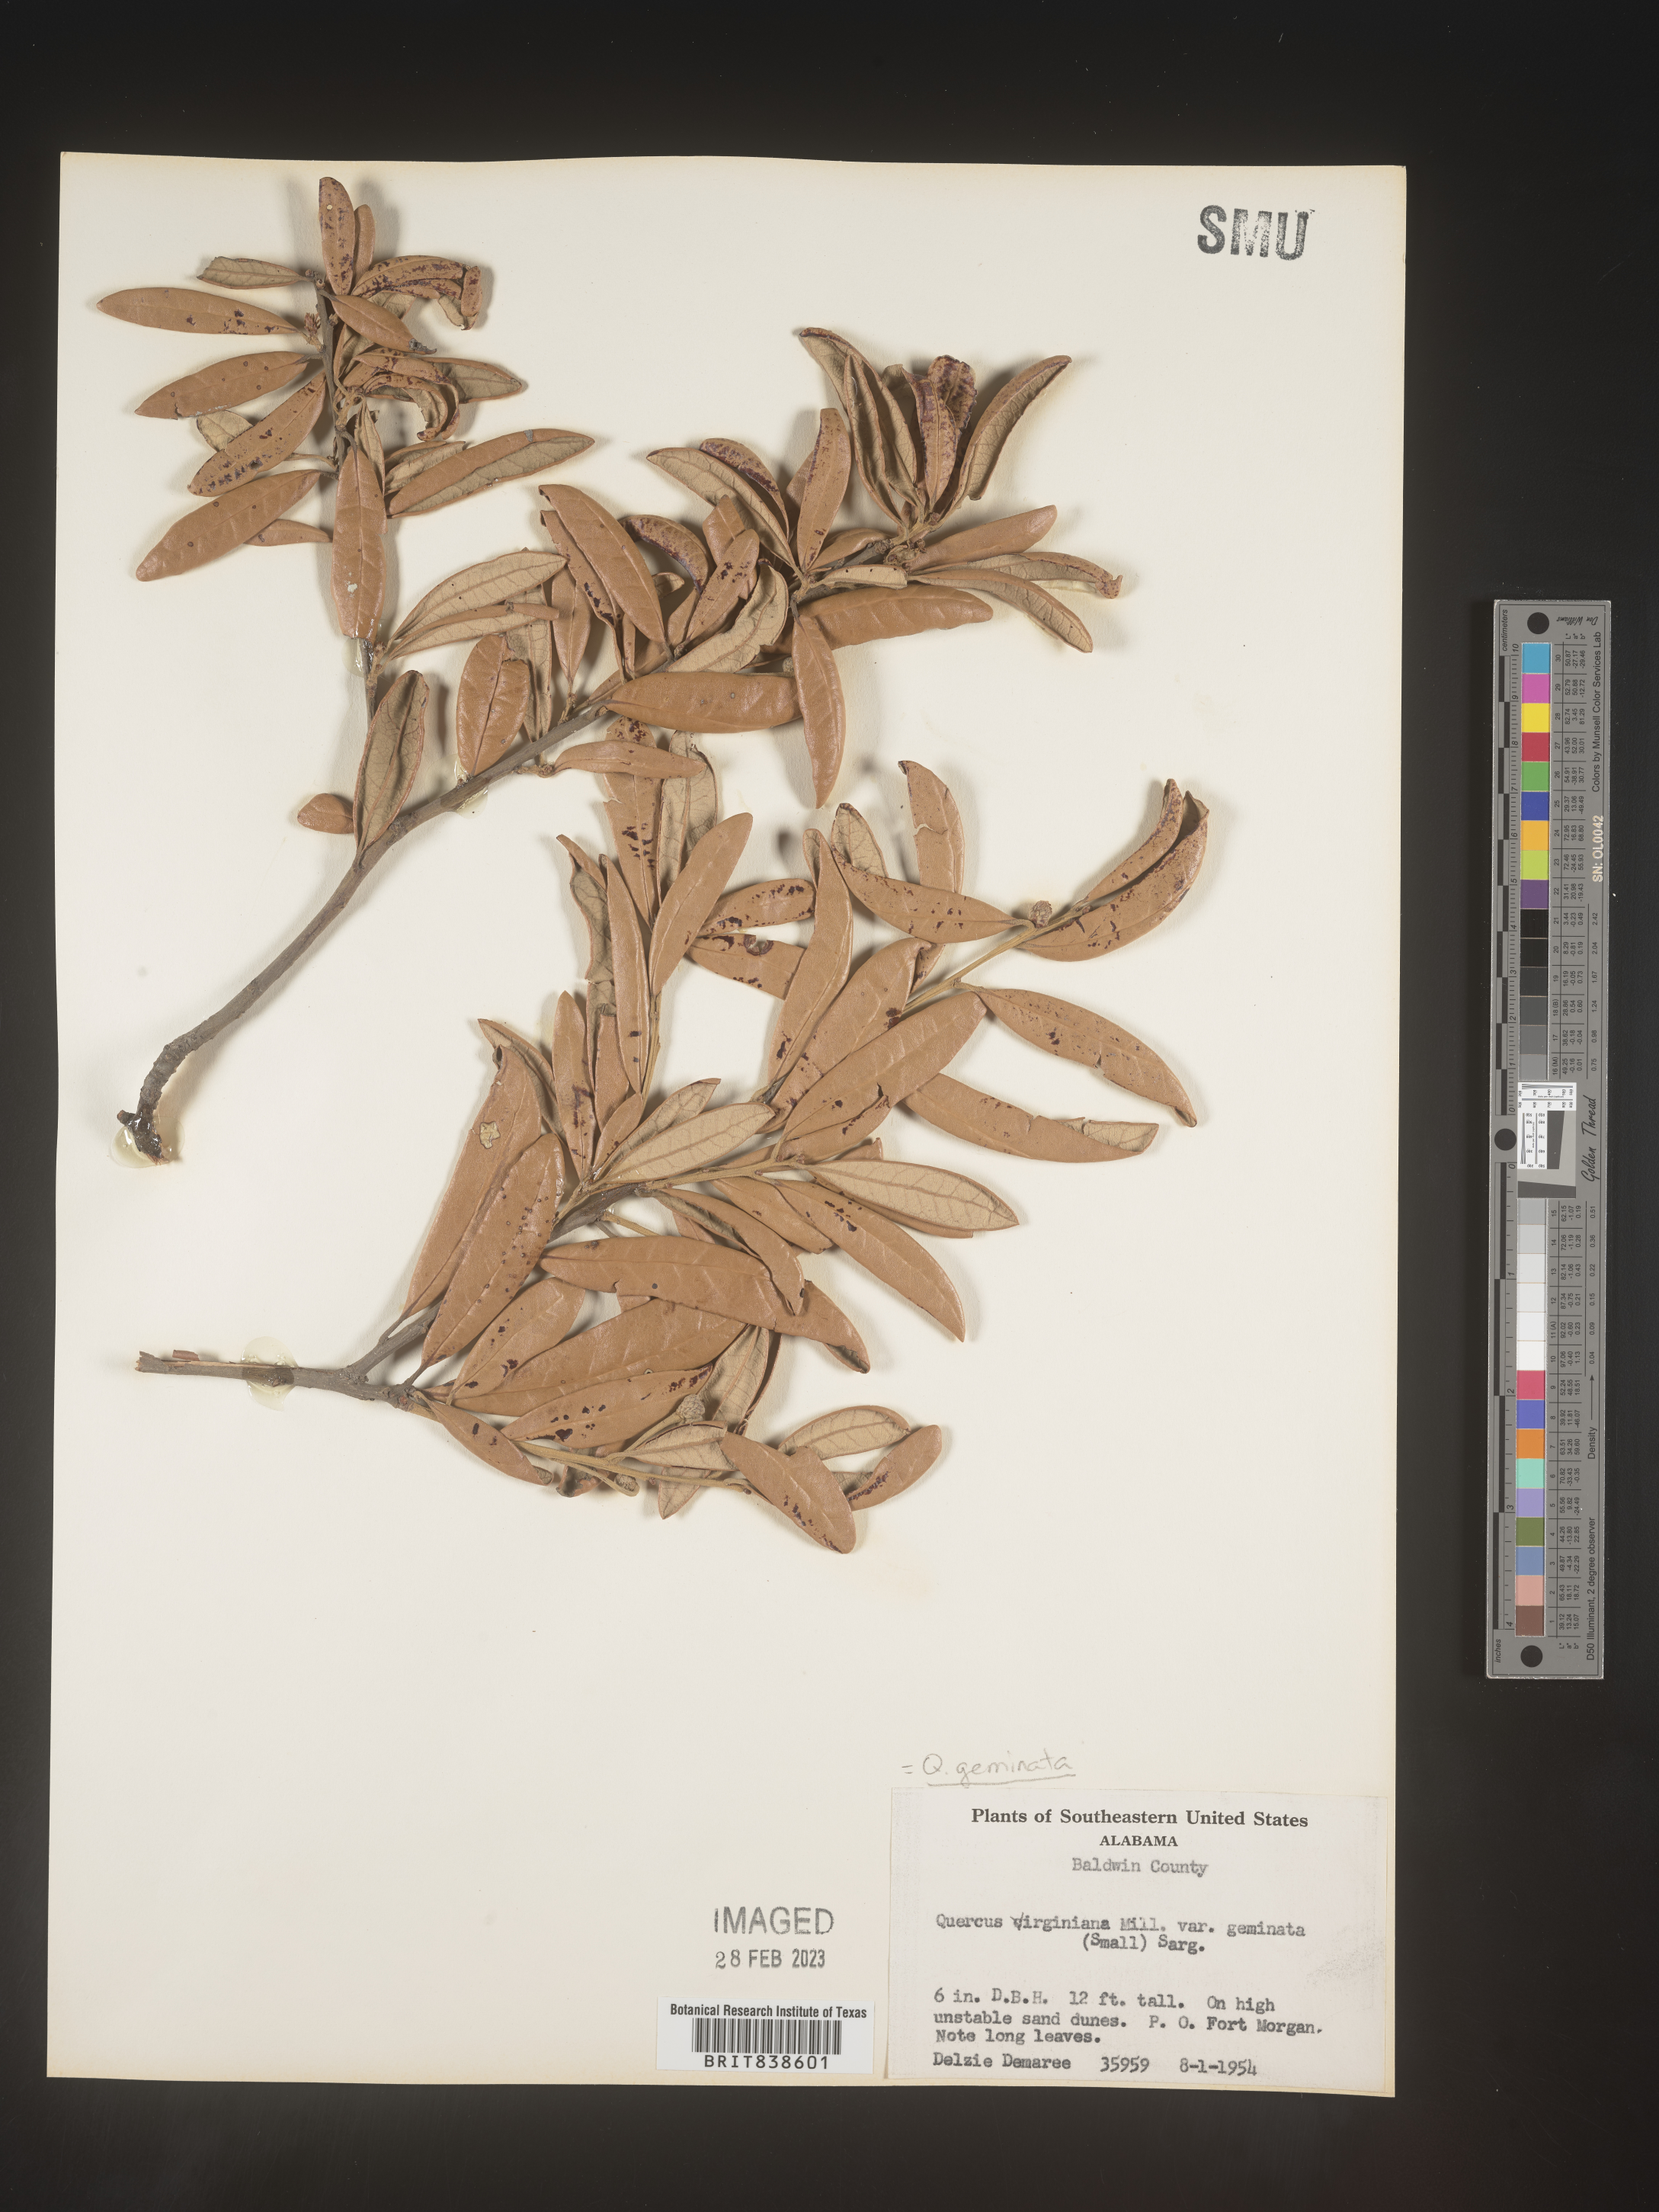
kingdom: Plantae
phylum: Tracheophyta
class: Magnoliopsida
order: Fagales
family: Fagaceae
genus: Quercus
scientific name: Quercus geminata
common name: Sand live oak
